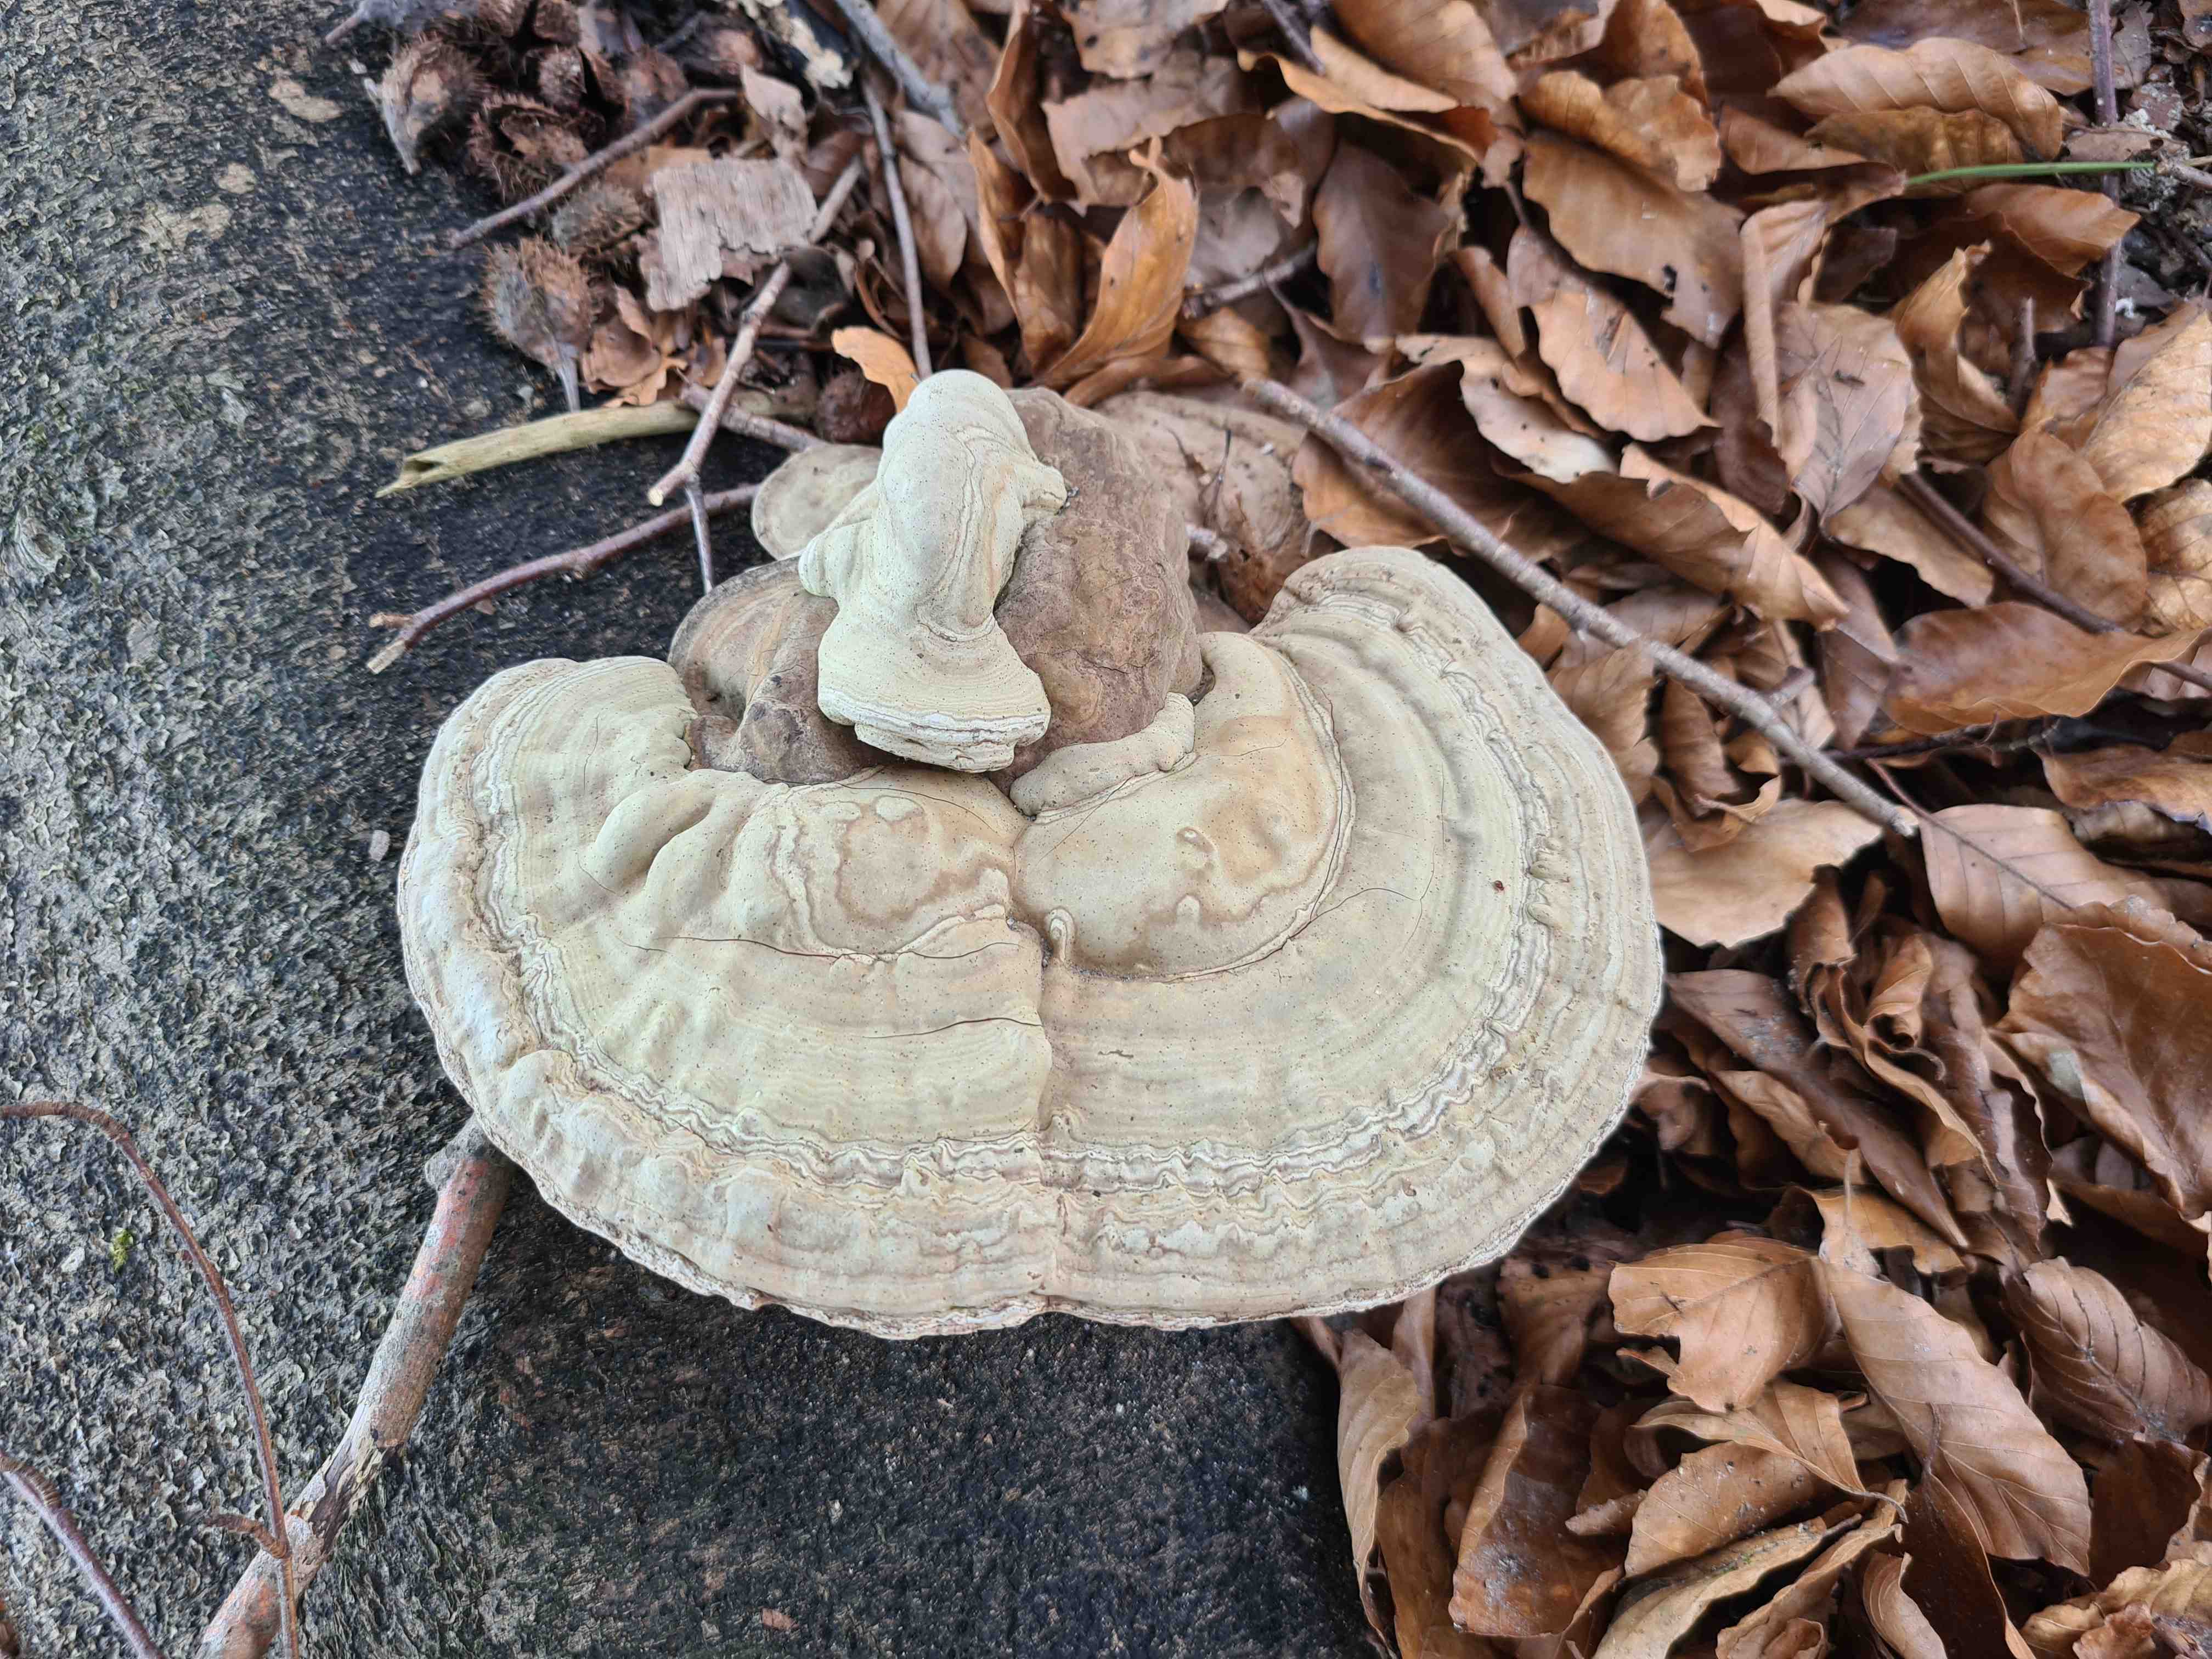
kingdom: Fungi
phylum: Basidiomycota
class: Agaricomycetes
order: Polyporales
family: Polyporaceae
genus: Ganoderma
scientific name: Ganoderma applanatum
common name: flad lakporesvamp
